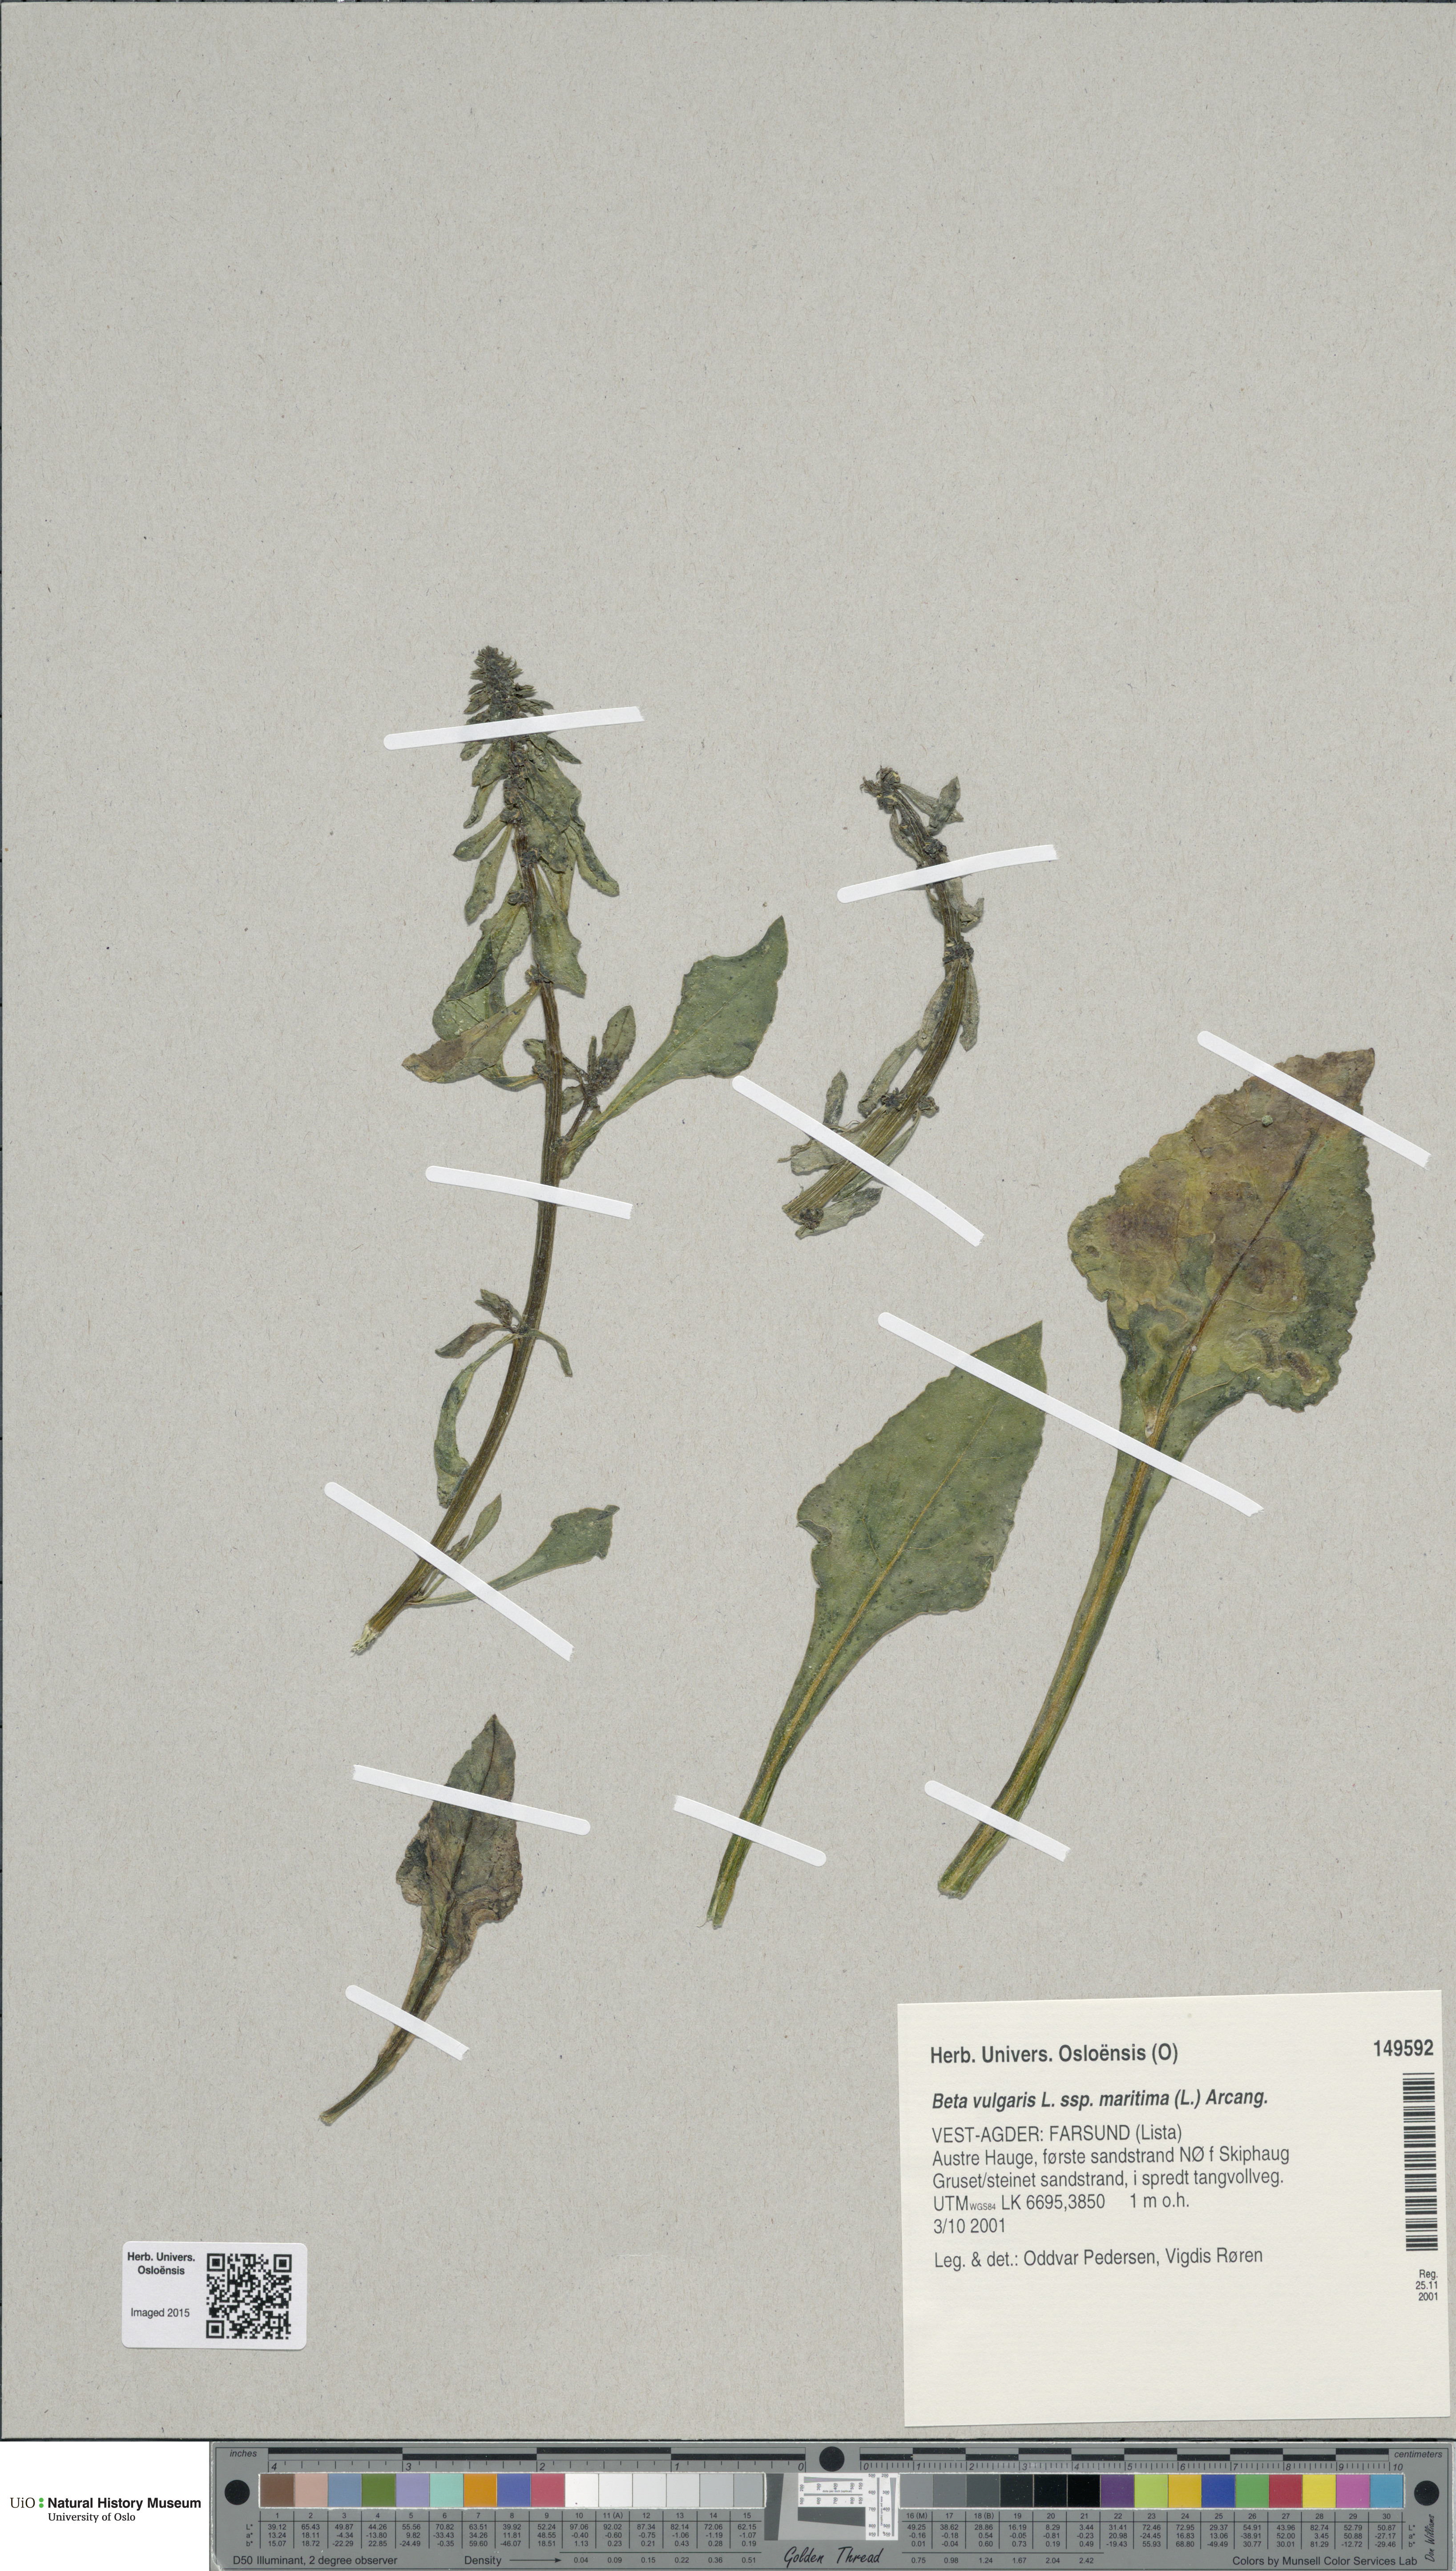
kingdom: Plantae
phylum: Tracheophyta
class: Magnoliopsida
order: Caryophyllales
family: Amaranthaceae
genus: Beta
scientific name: Beta maritima
